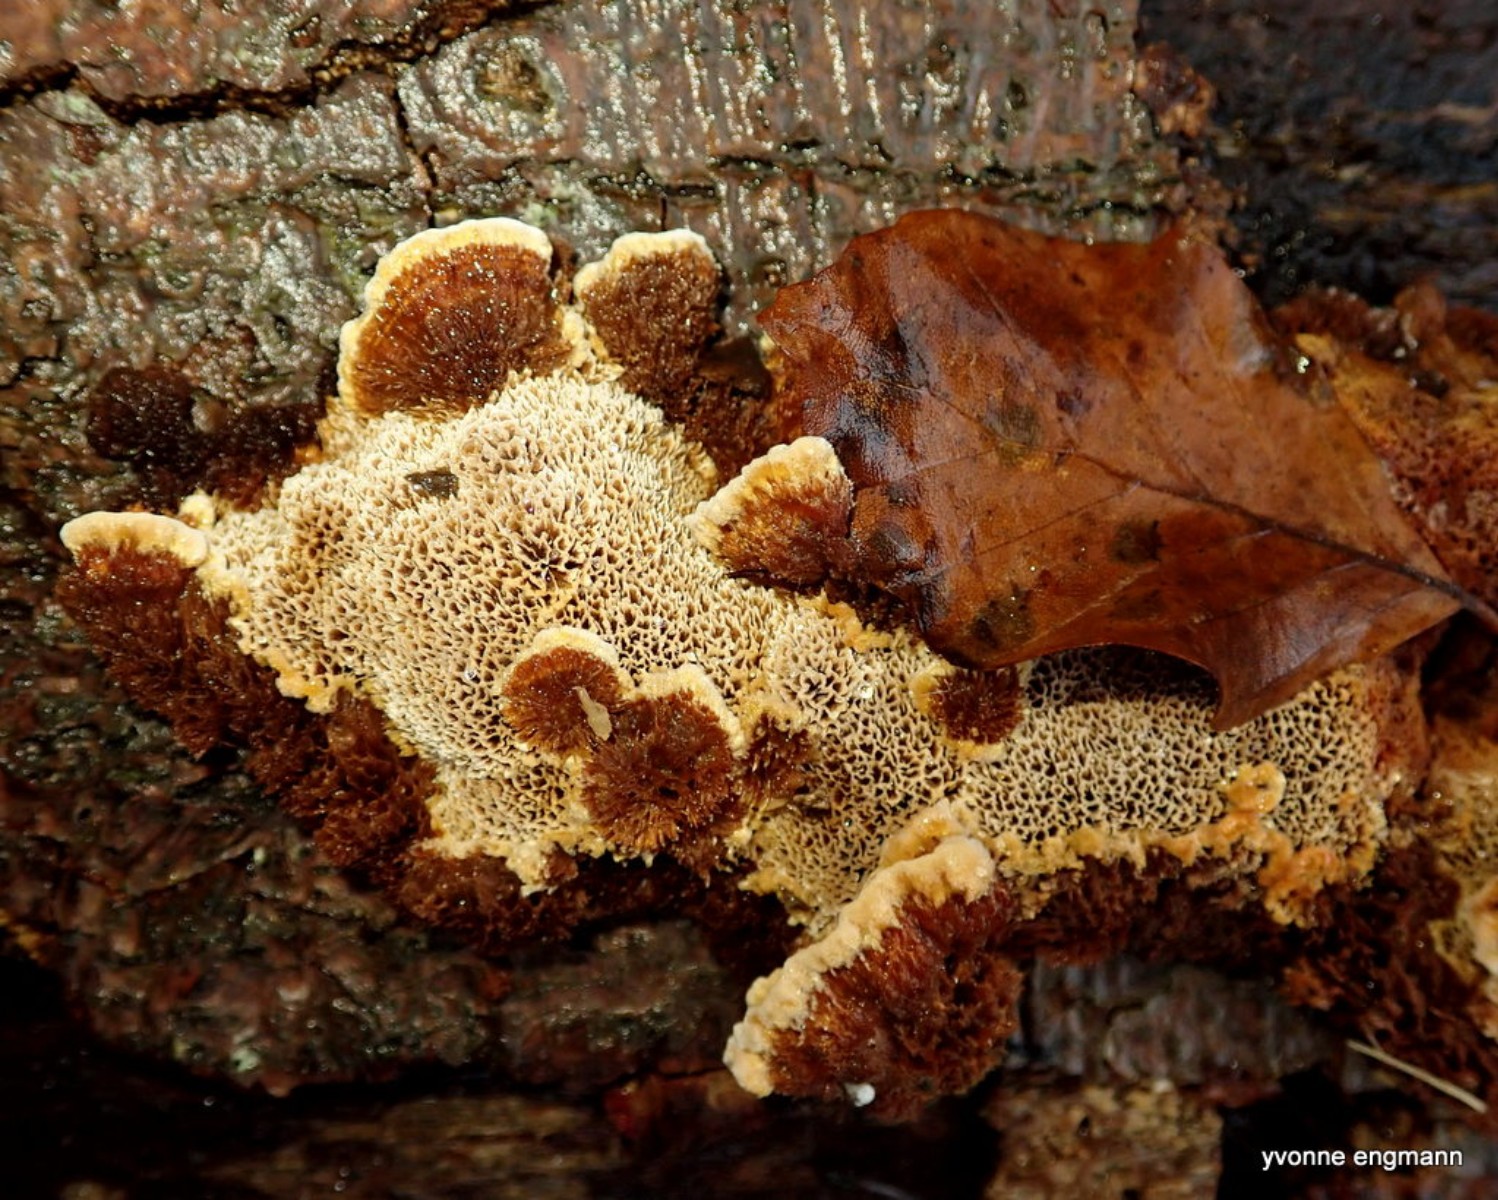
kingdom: Fungi
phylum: Basidiomycota
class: Agaricomycetes
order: Hymenochaetales
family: Hymenochaetaceae
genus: Mensularia
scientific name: Mensularia nodulosa
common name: bøge-spejlporesvamp
